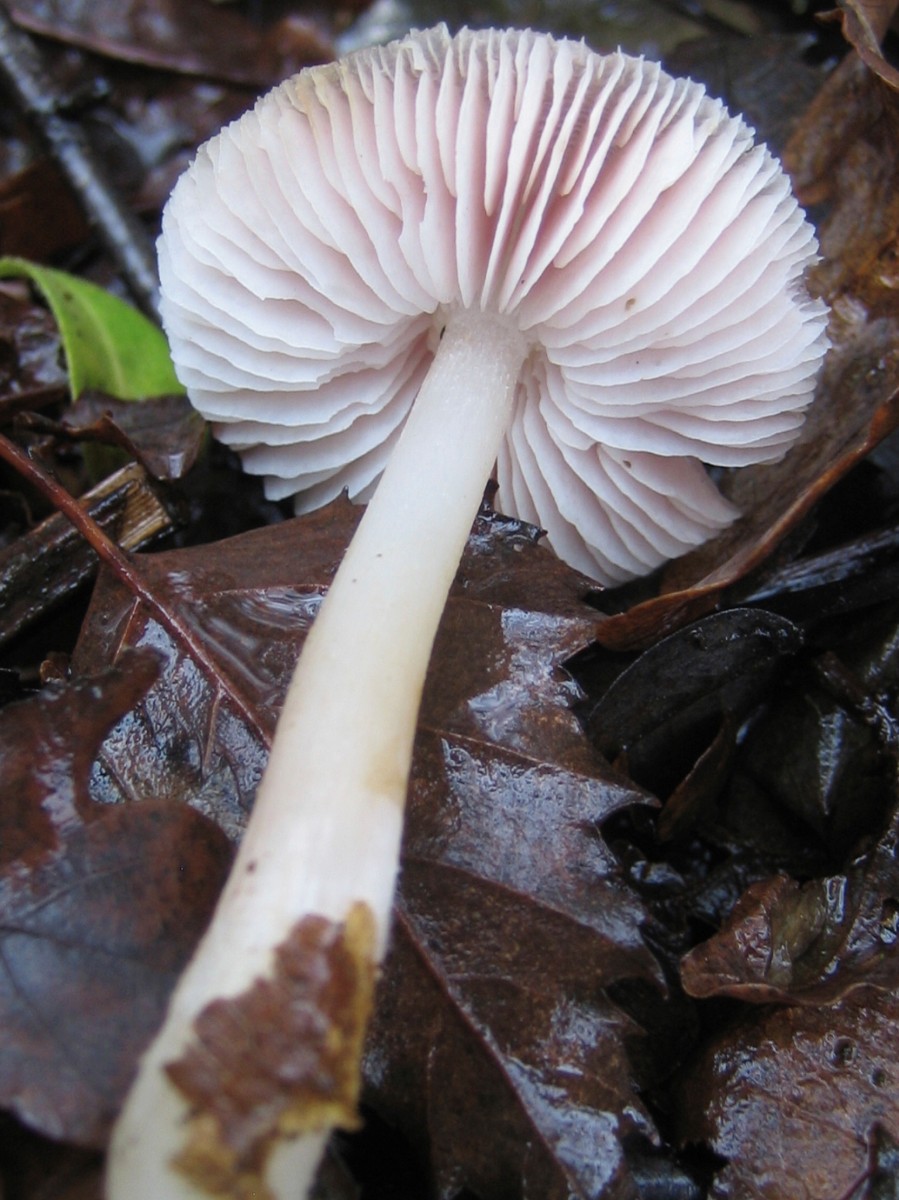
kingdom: Fungi
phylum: Basidiomycota
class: Agaricomycetes
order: Agaricales
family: Mycenaceae
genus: Mycena
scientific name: Mycena rosea
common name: rosa huesvamp
